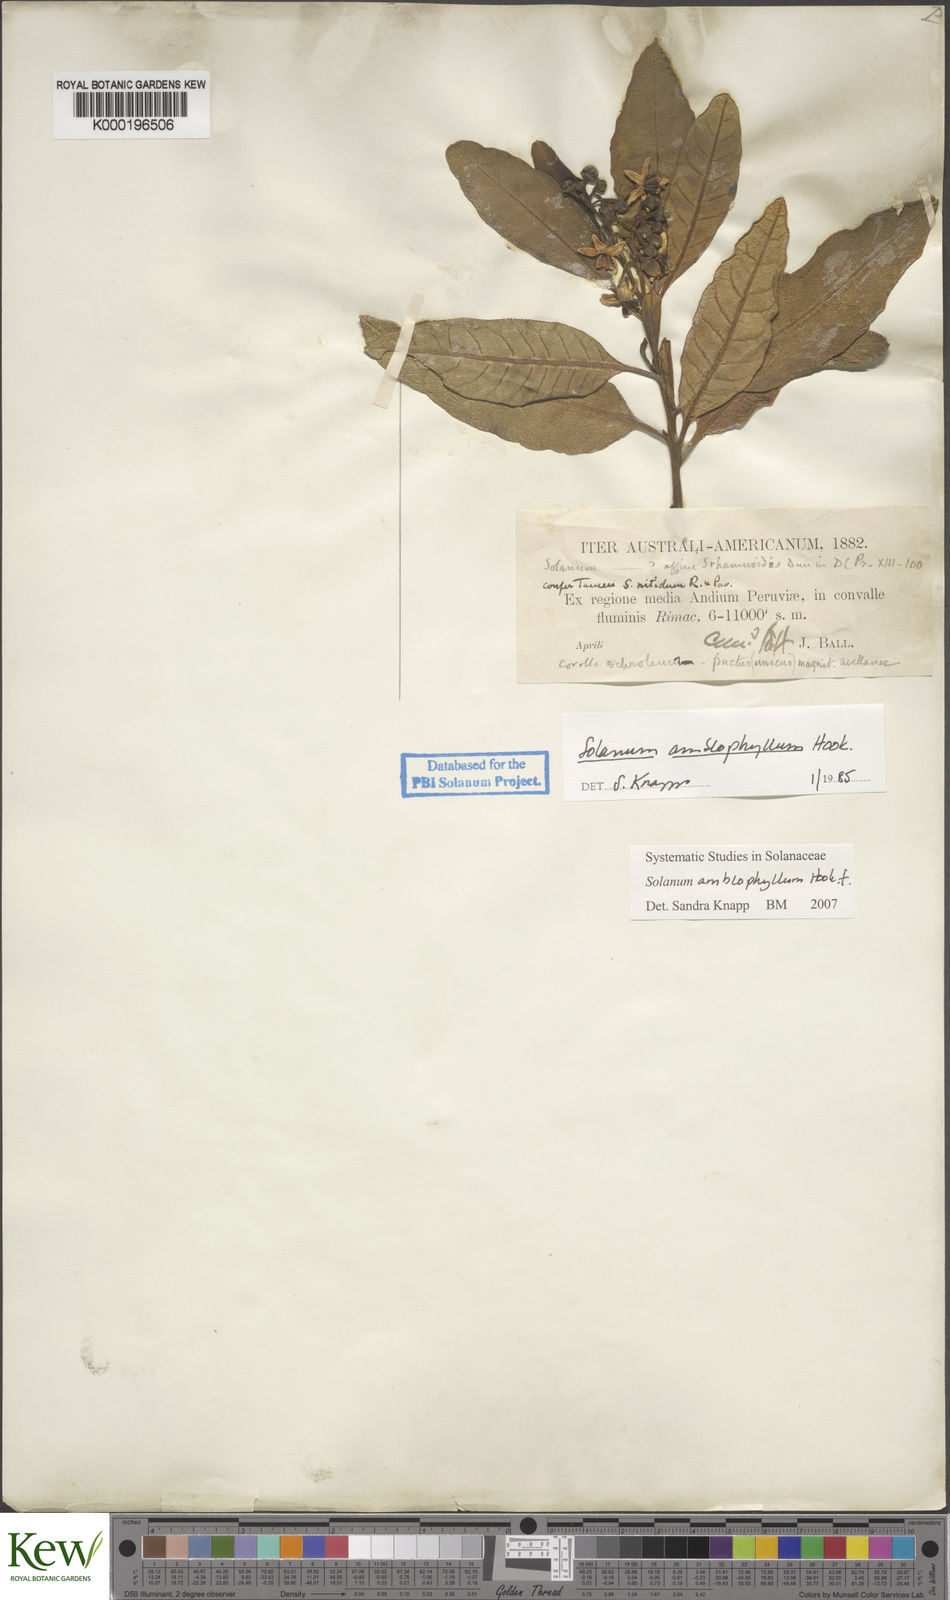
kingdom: Plantae
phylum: Tracheophyta
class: Magnoliopsida
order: Solanales
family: Solanaceae
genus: Solanum
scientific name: Solanum amblophyllum
